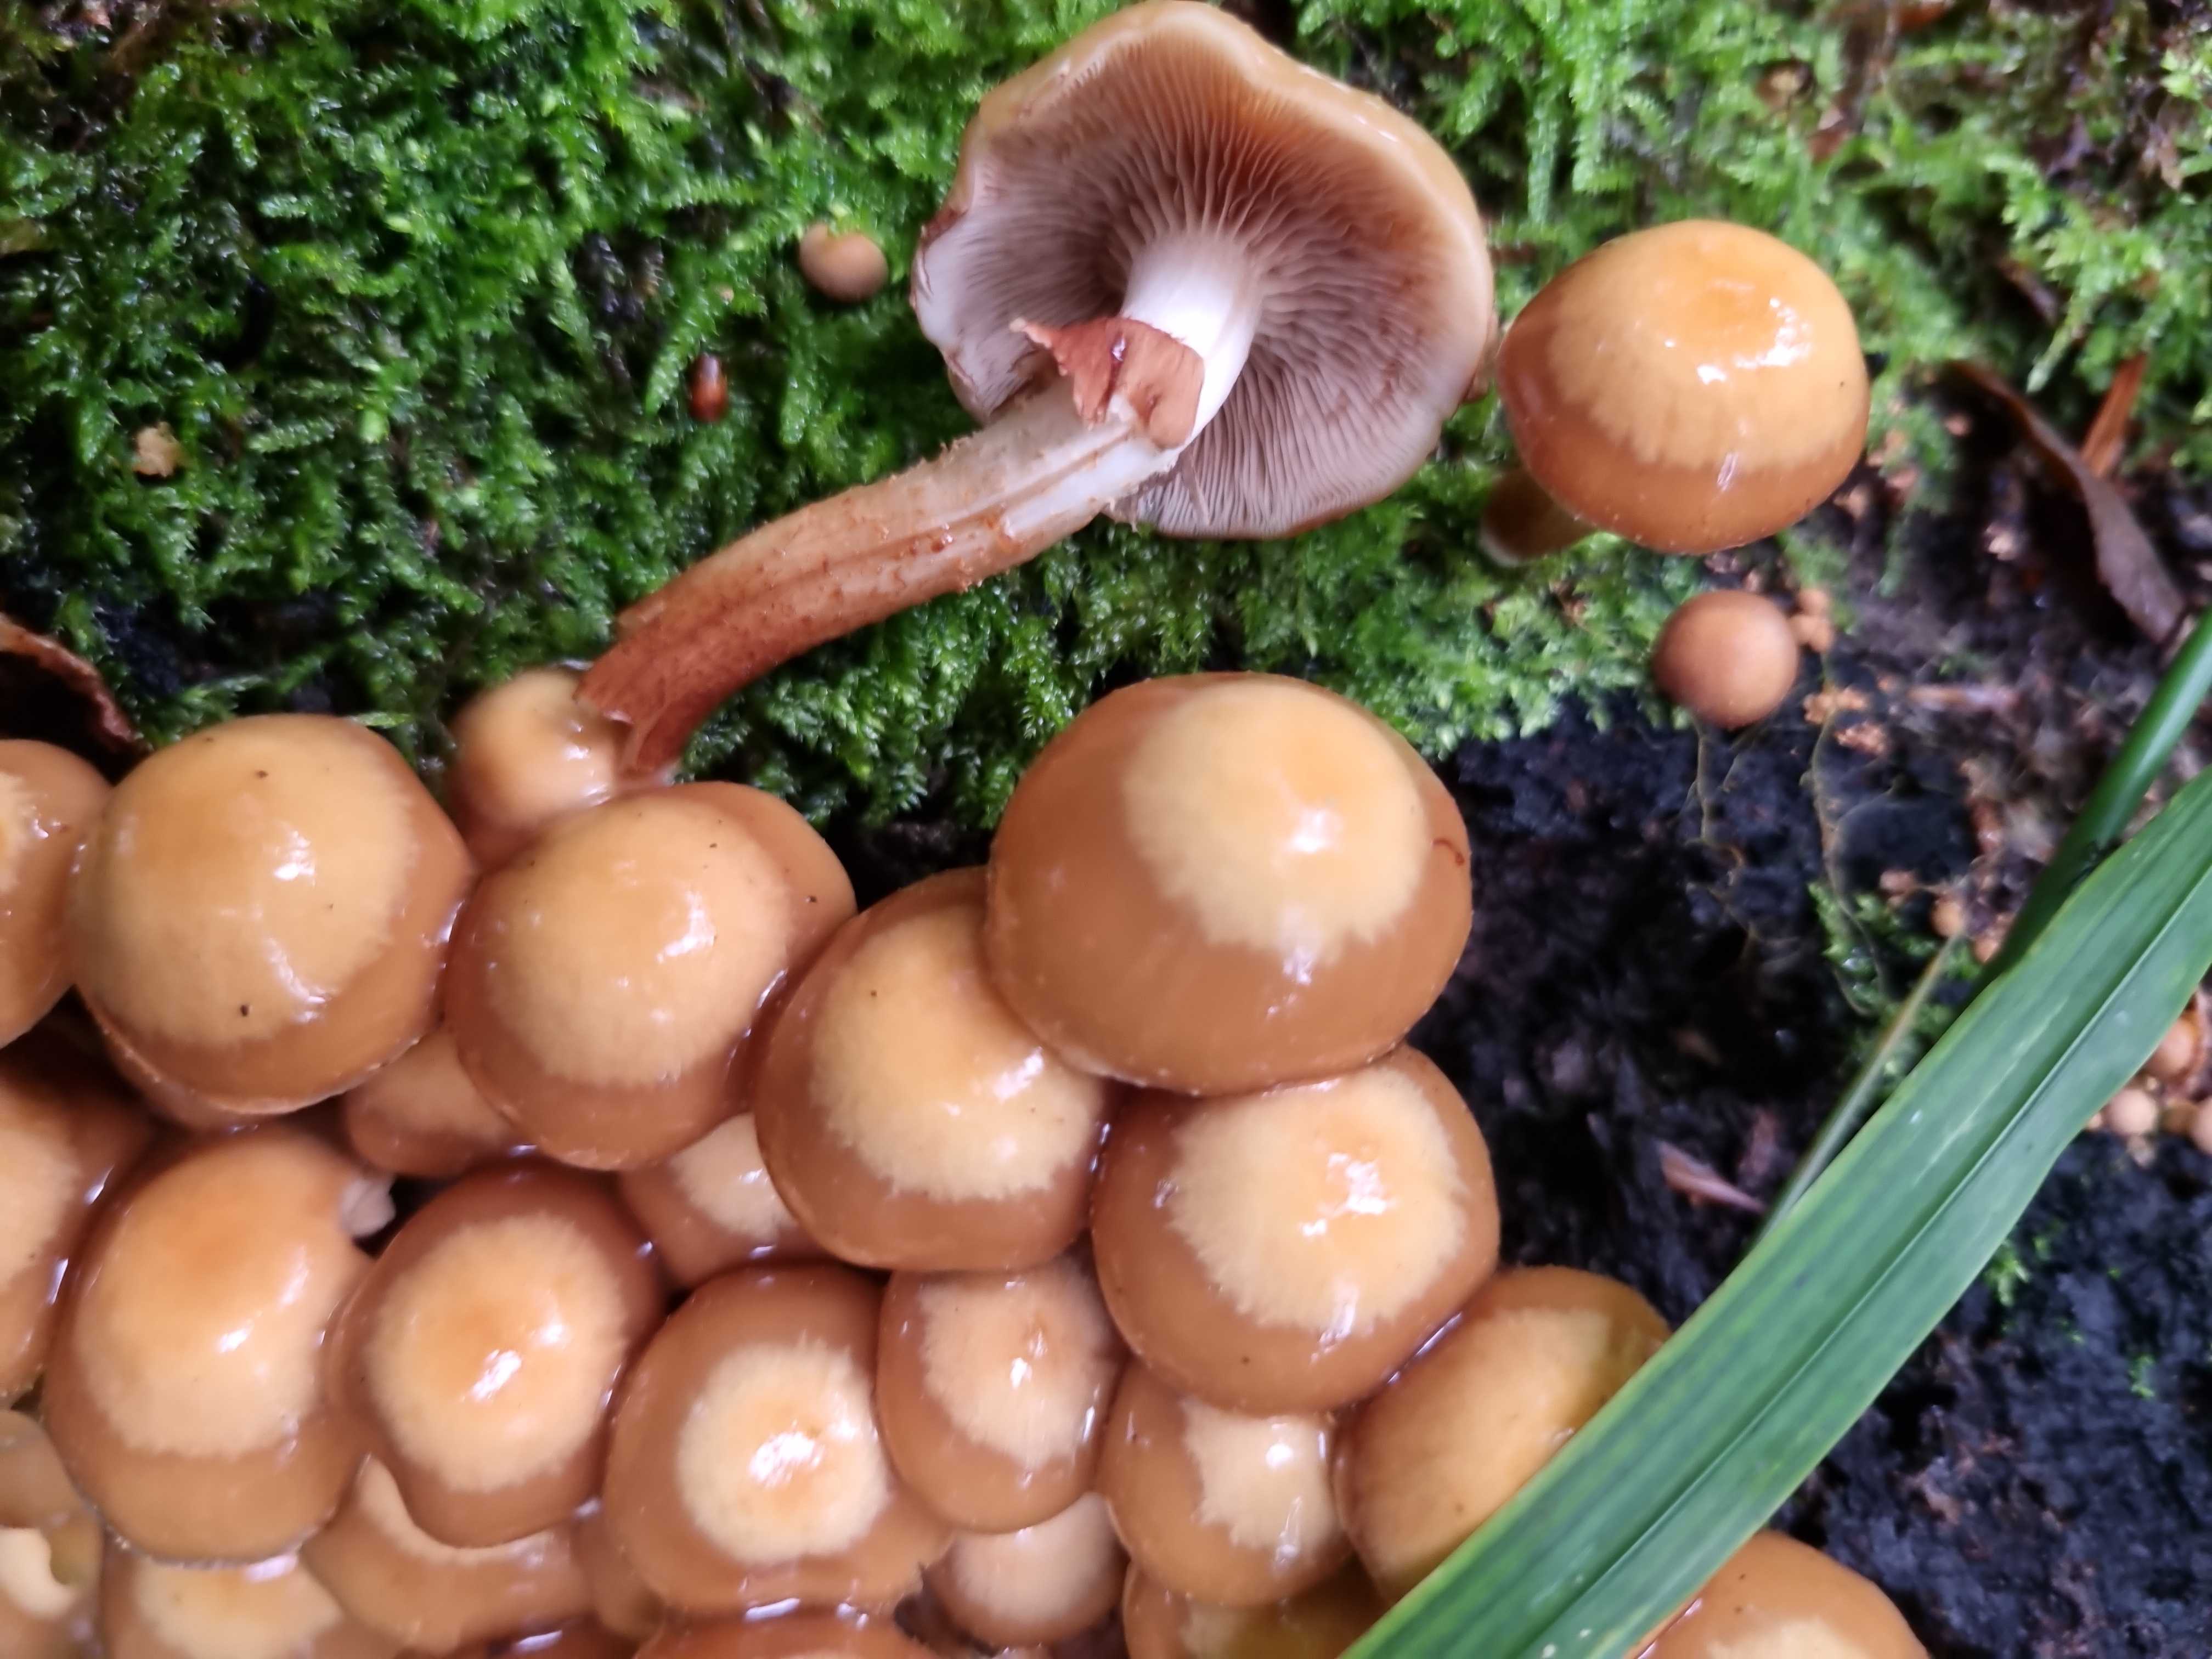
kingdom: Fungi
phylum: Basidiomycota
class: Agaricomycetes
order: Agaricales
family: Strophariaceae
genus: Kuehneromyces
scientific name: Kuehneromyces mutabilis
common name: foranderlig skælhat
